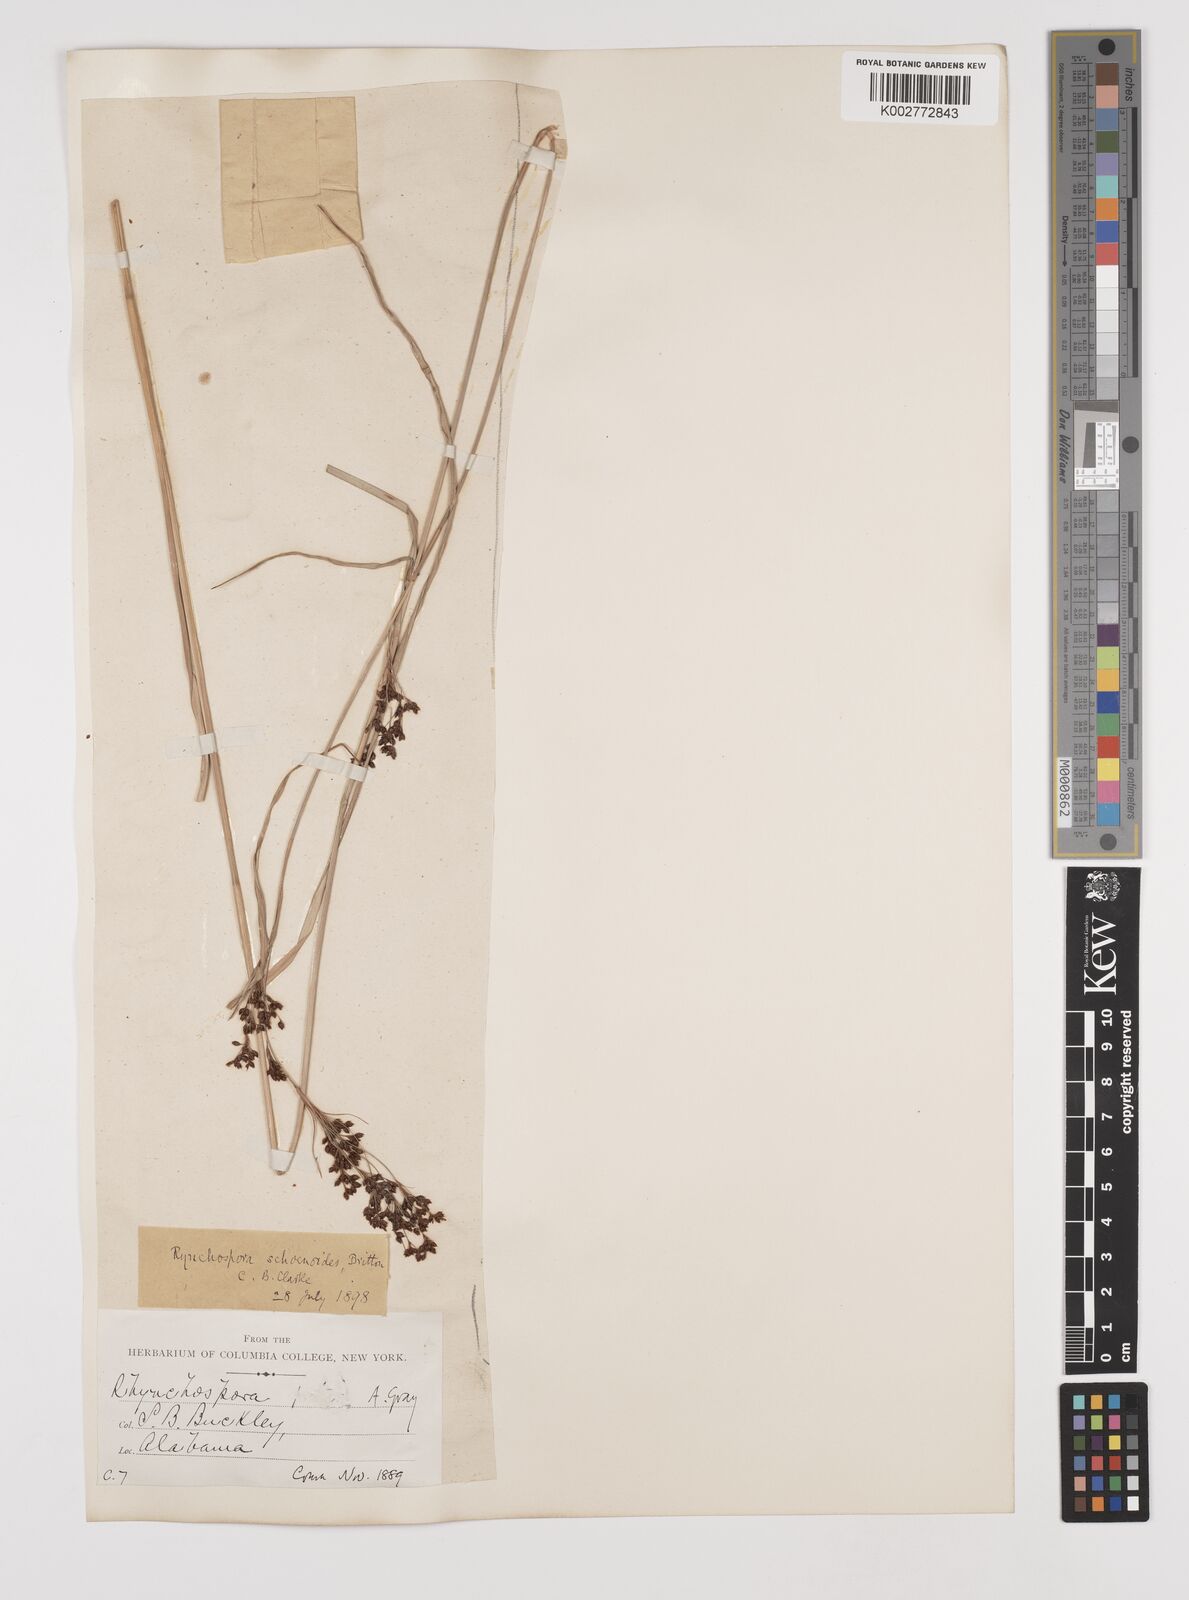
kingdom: Plantae
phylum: Tracheophyta
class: Liliopsida
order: Poales
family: Cyperaceae
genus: Rhynchospora
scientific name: Rhynchospora holoschoenoides
